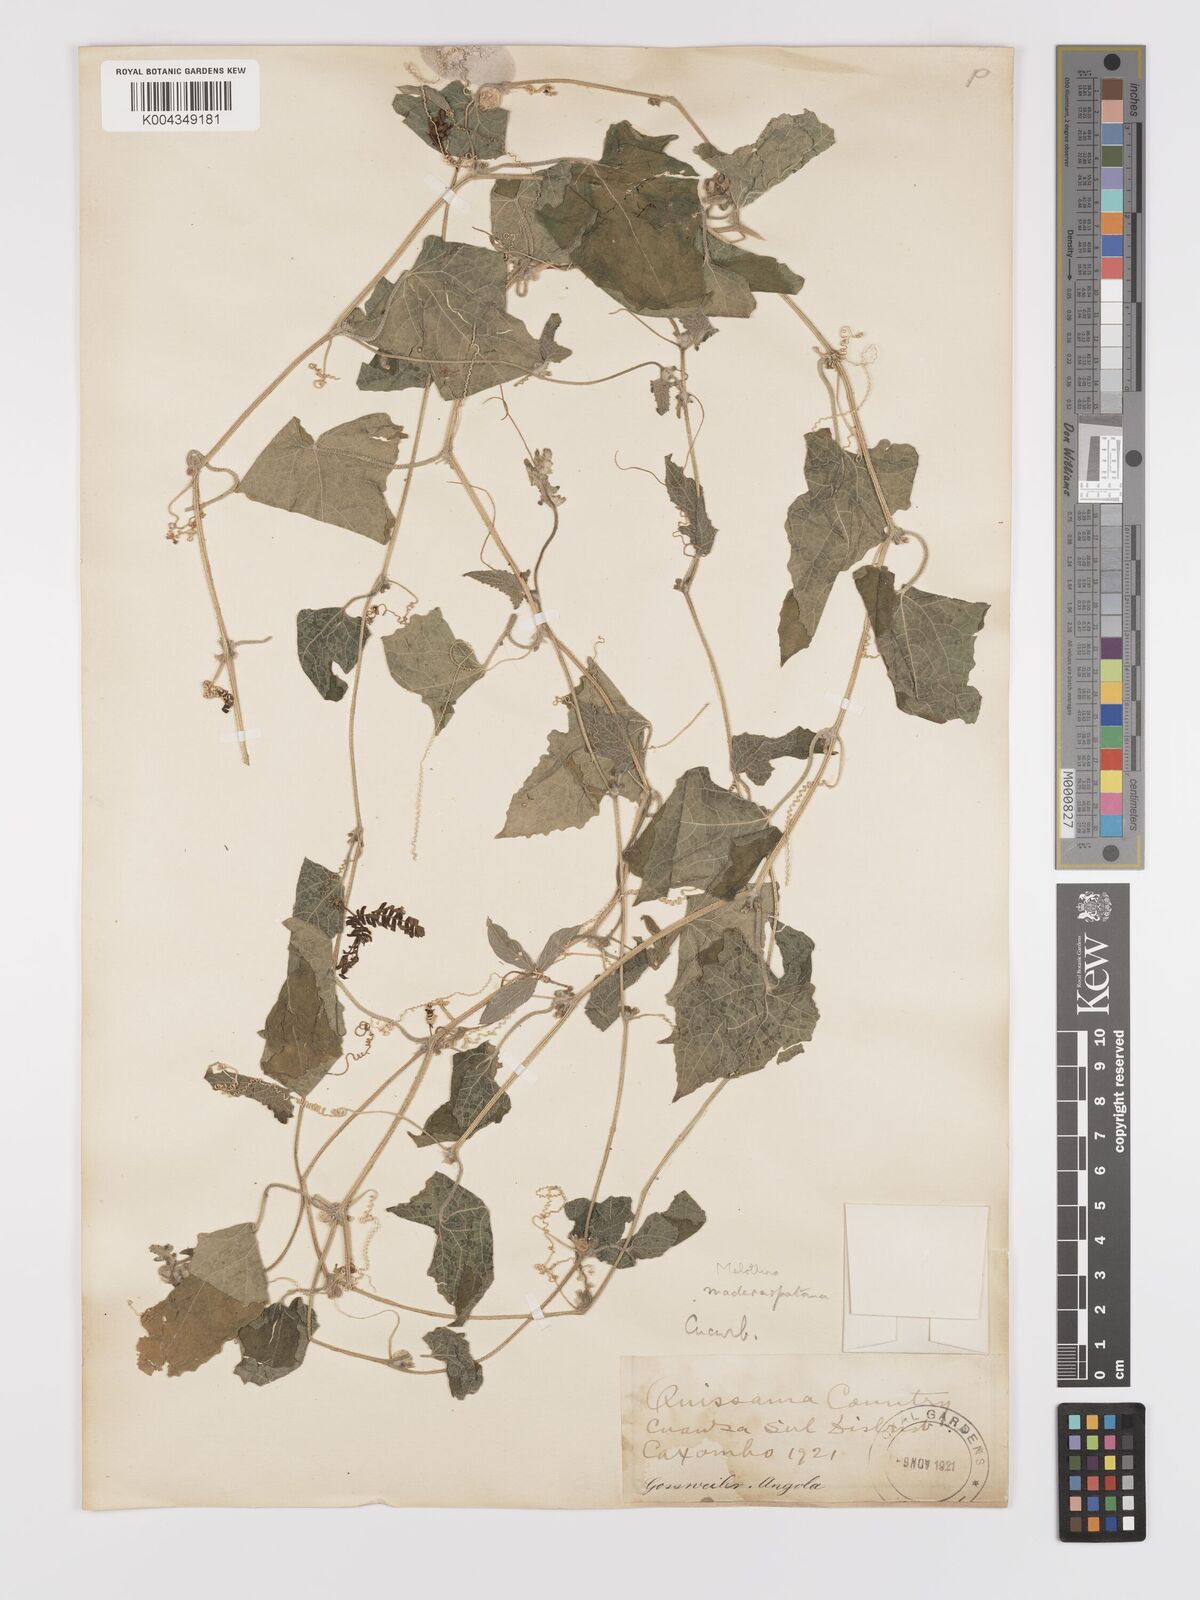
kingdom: Plantae
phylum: Tracheophyta
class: Magnoliopsida
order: Cucurbitales
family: Cucurbitaceae
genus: Cucumis
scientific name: Cucumis maderaspatanus
